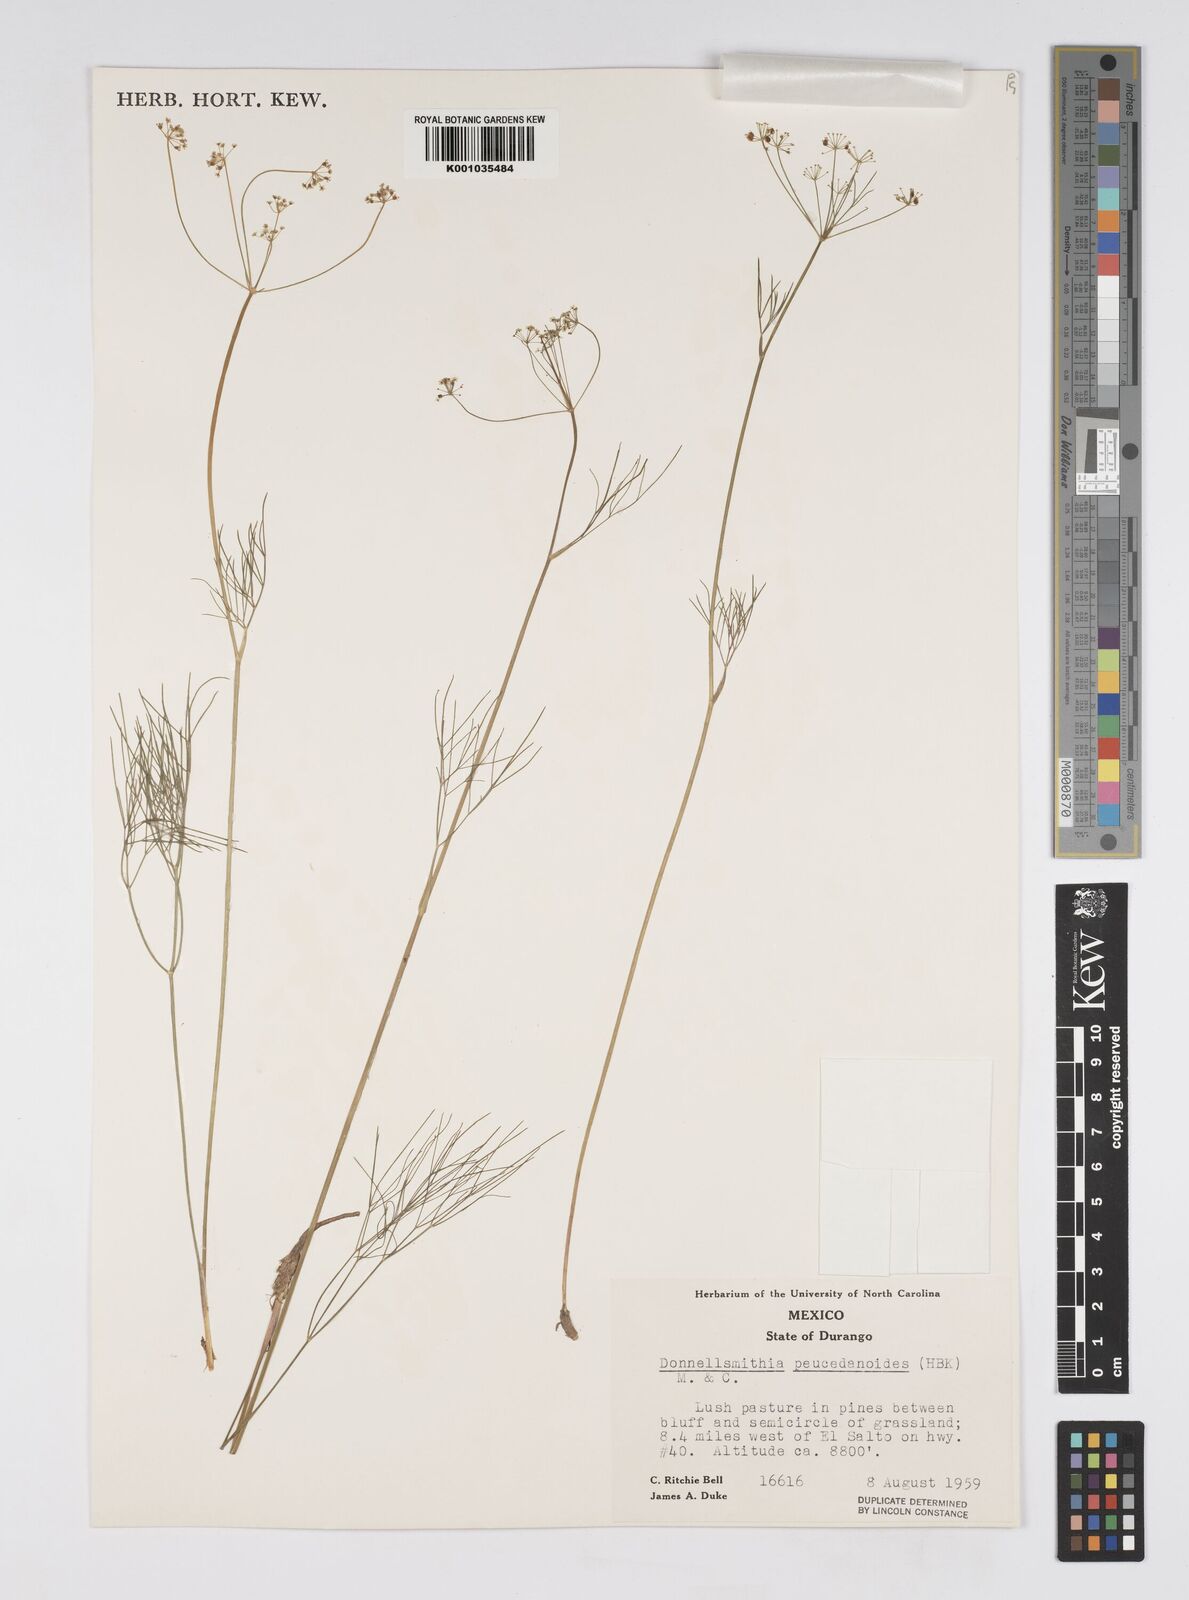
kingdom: Plantae
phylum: Tracheophyta
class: Magnoliopsida
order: Apiales
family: Apiaceae
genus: Donnellsmithia
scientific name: Donnellsmithia juncea
